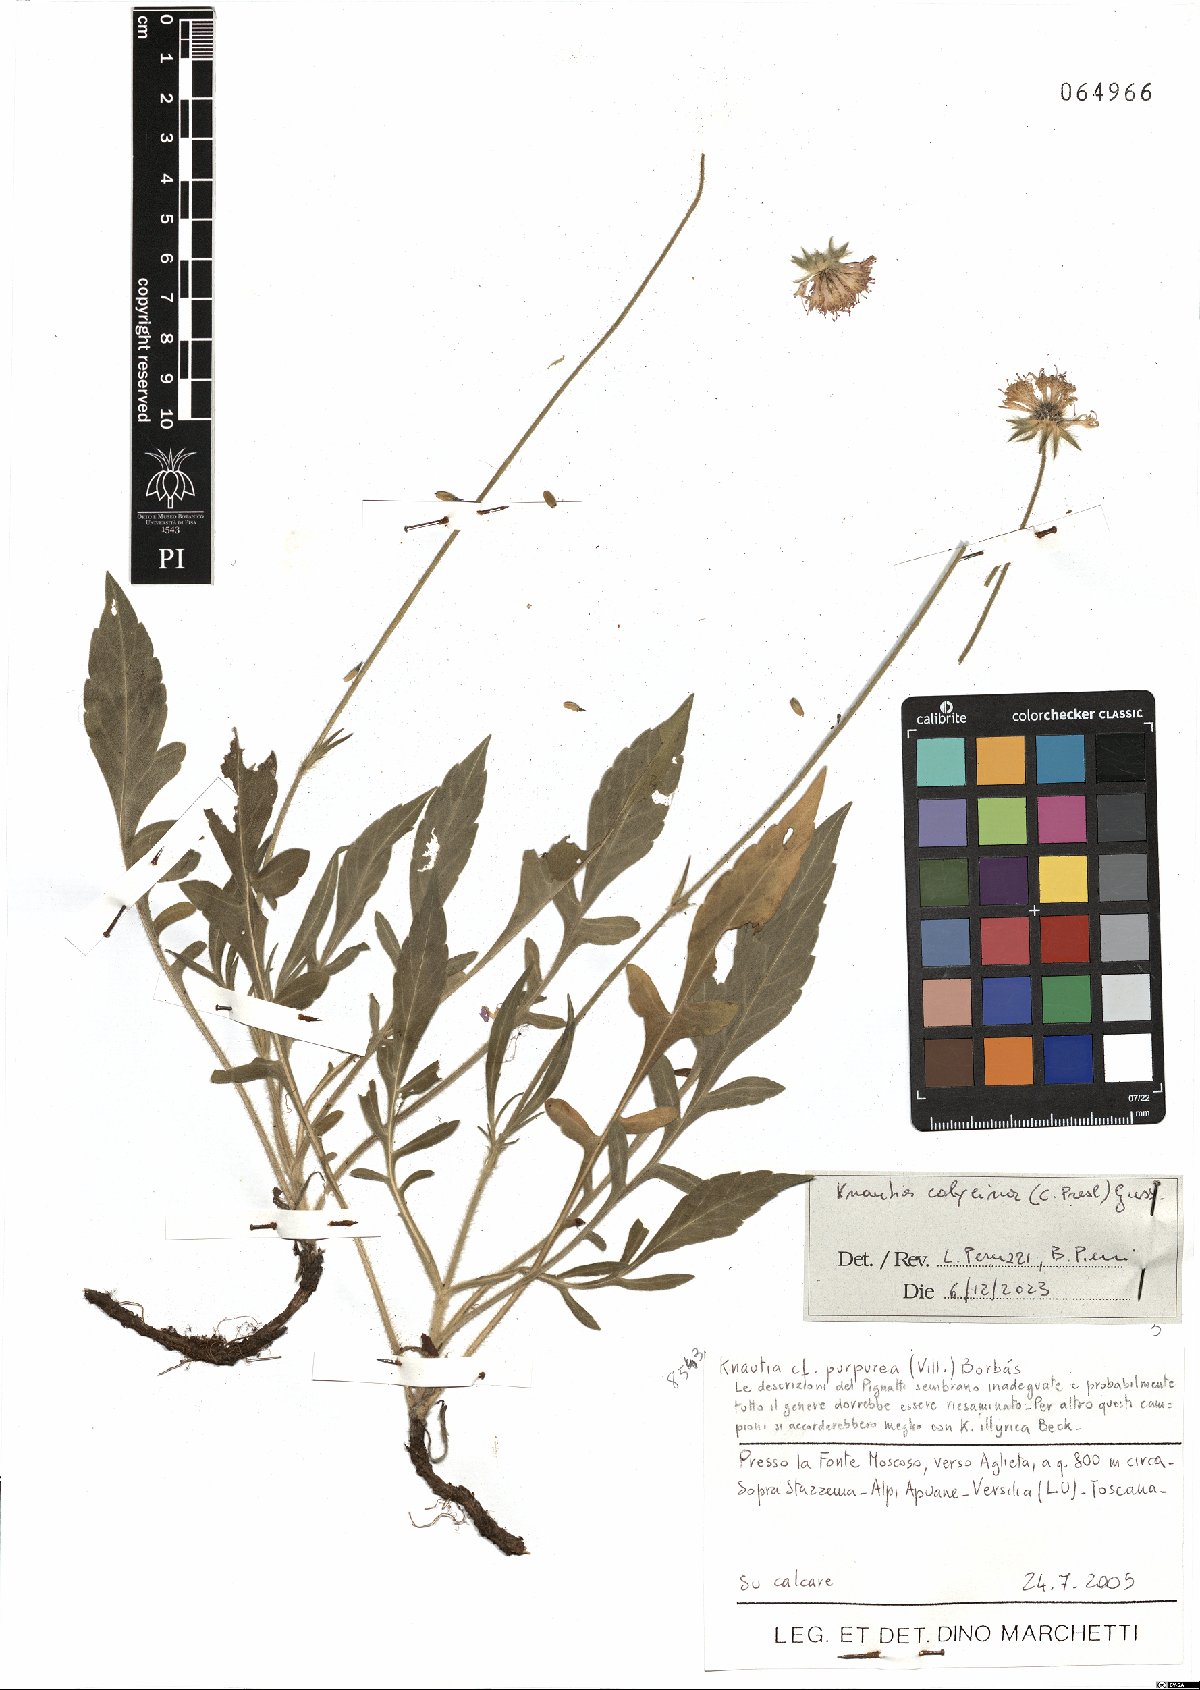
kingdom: Plantae
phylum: Tracheophyta
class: Magnoliopsida
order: Dipsacales
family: Caprifoliaceae
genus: Knautia
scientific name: Knautia calycina
